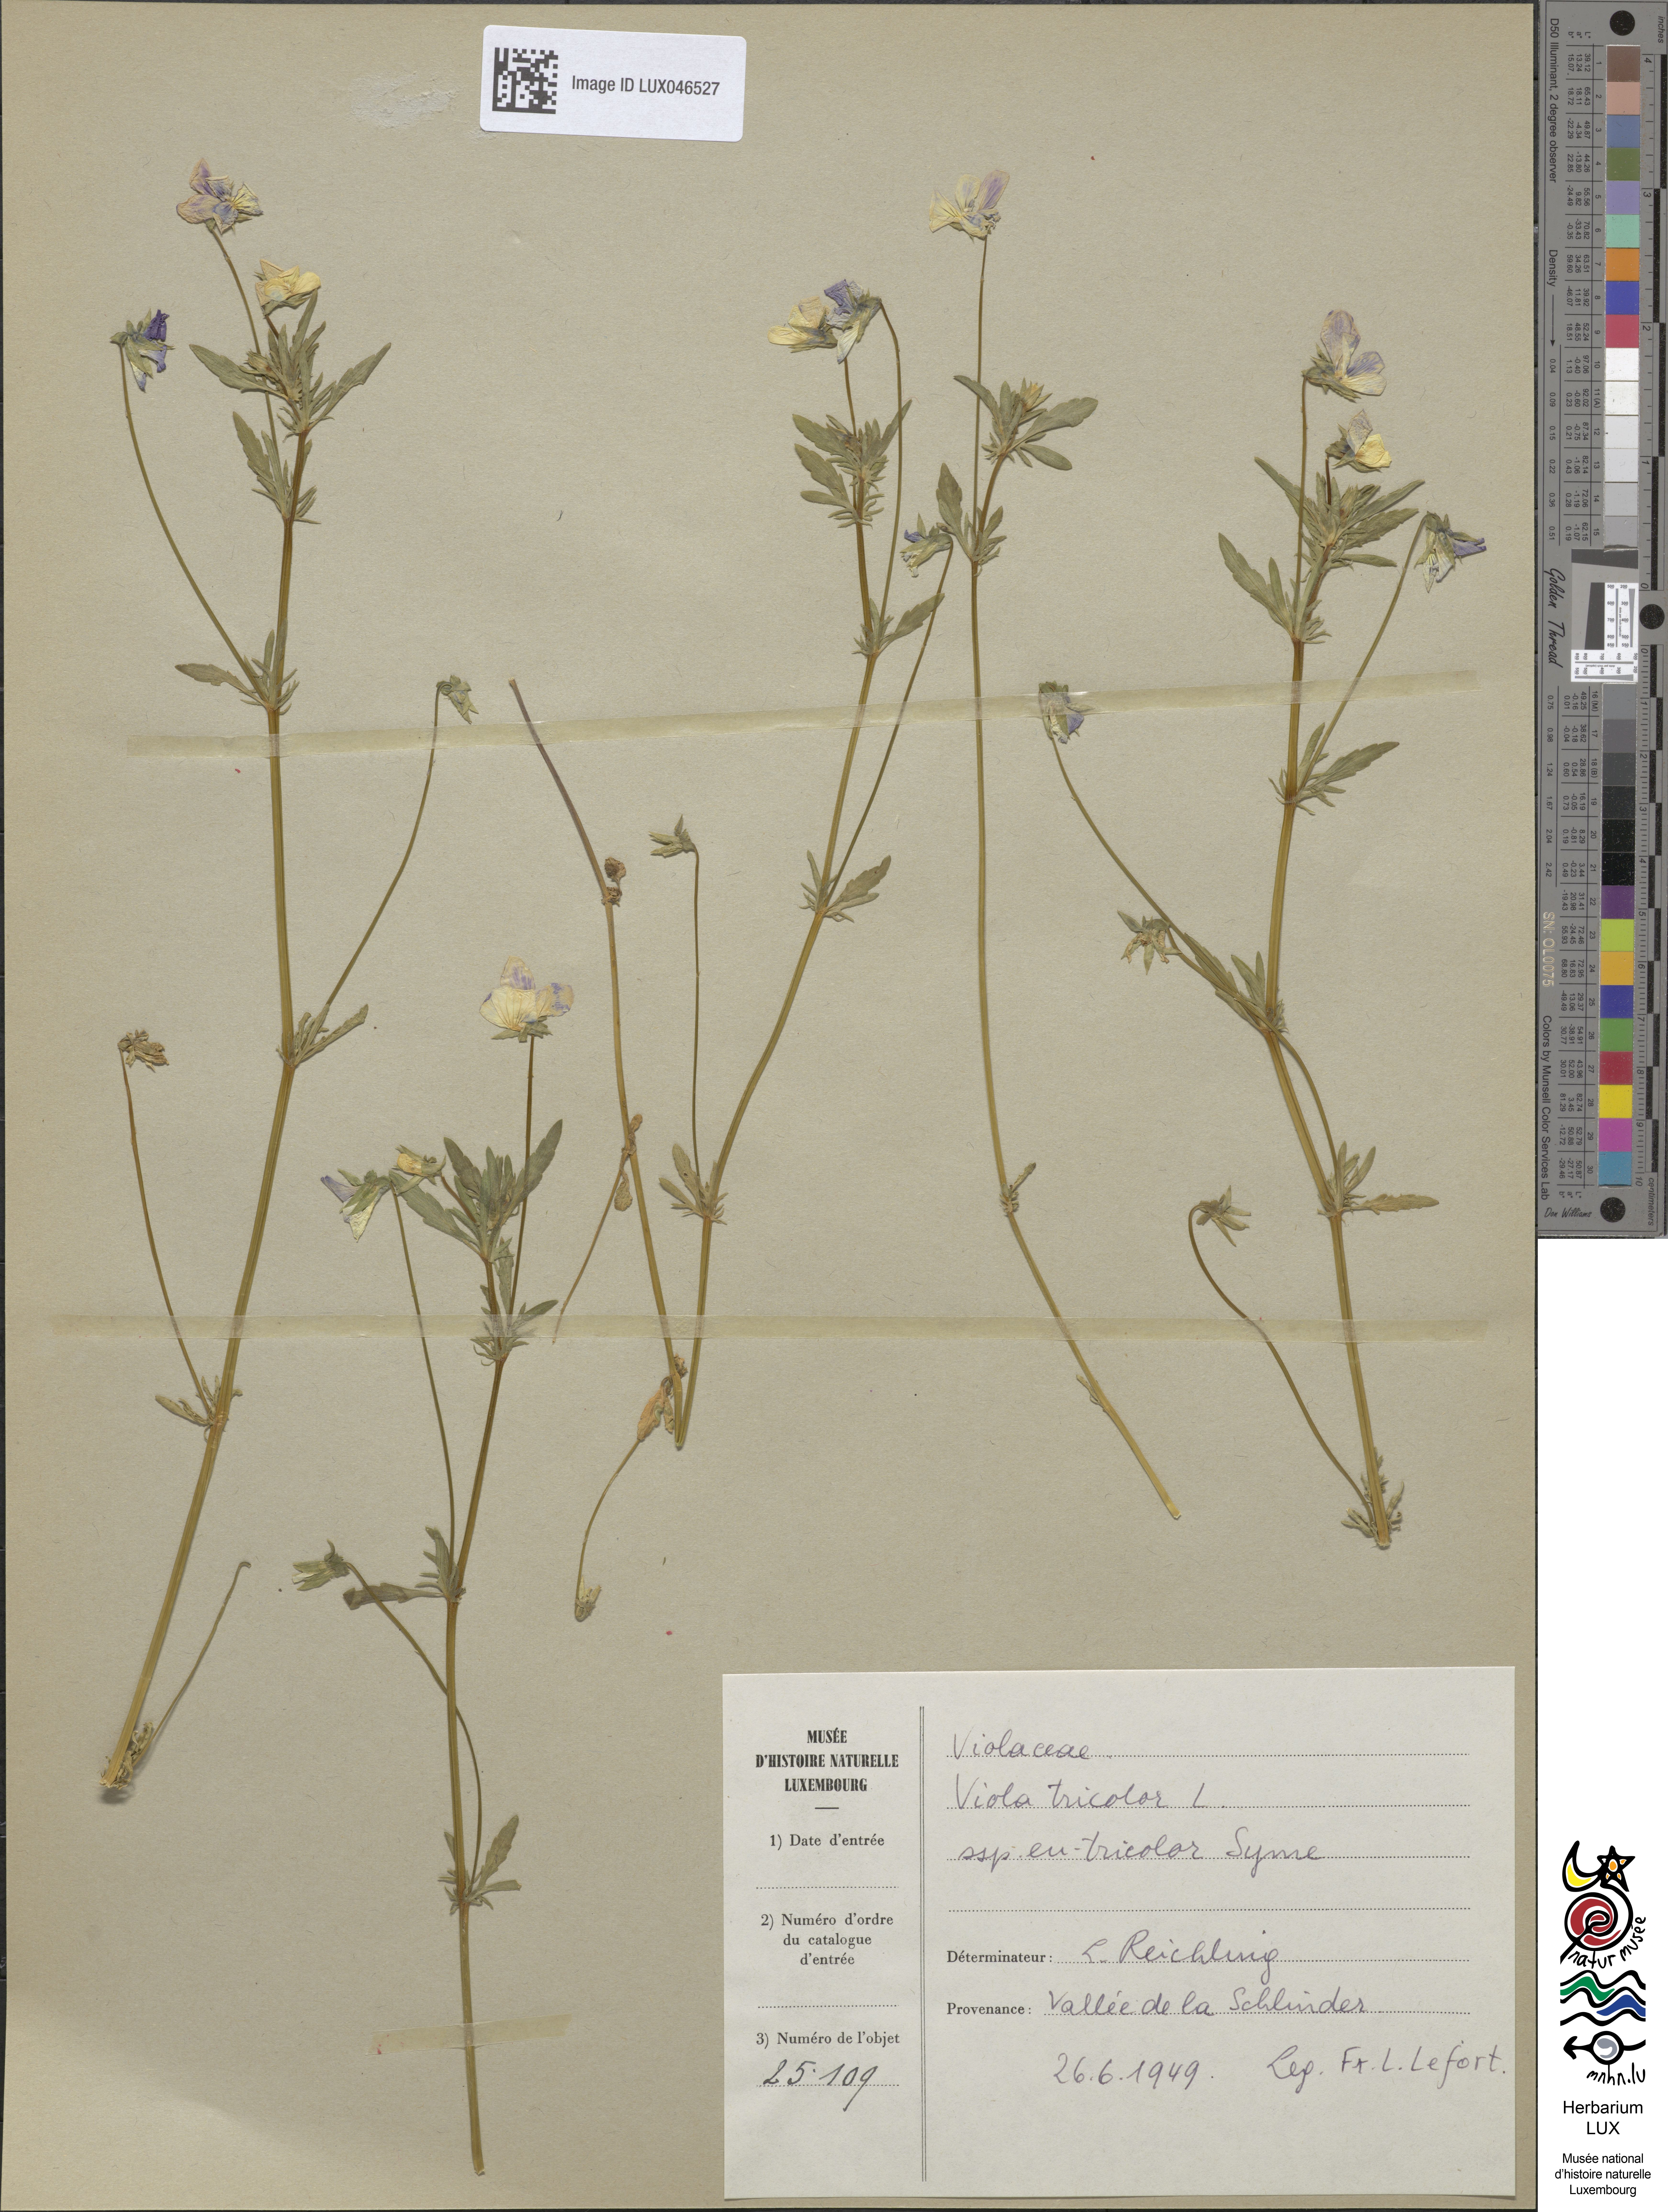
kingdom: Plantae
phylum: Tracheophyta
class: Magnoliopsida
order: Malpighiales
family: Violaceae
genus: Viola
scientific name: Viola tricolor
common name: Pansy
